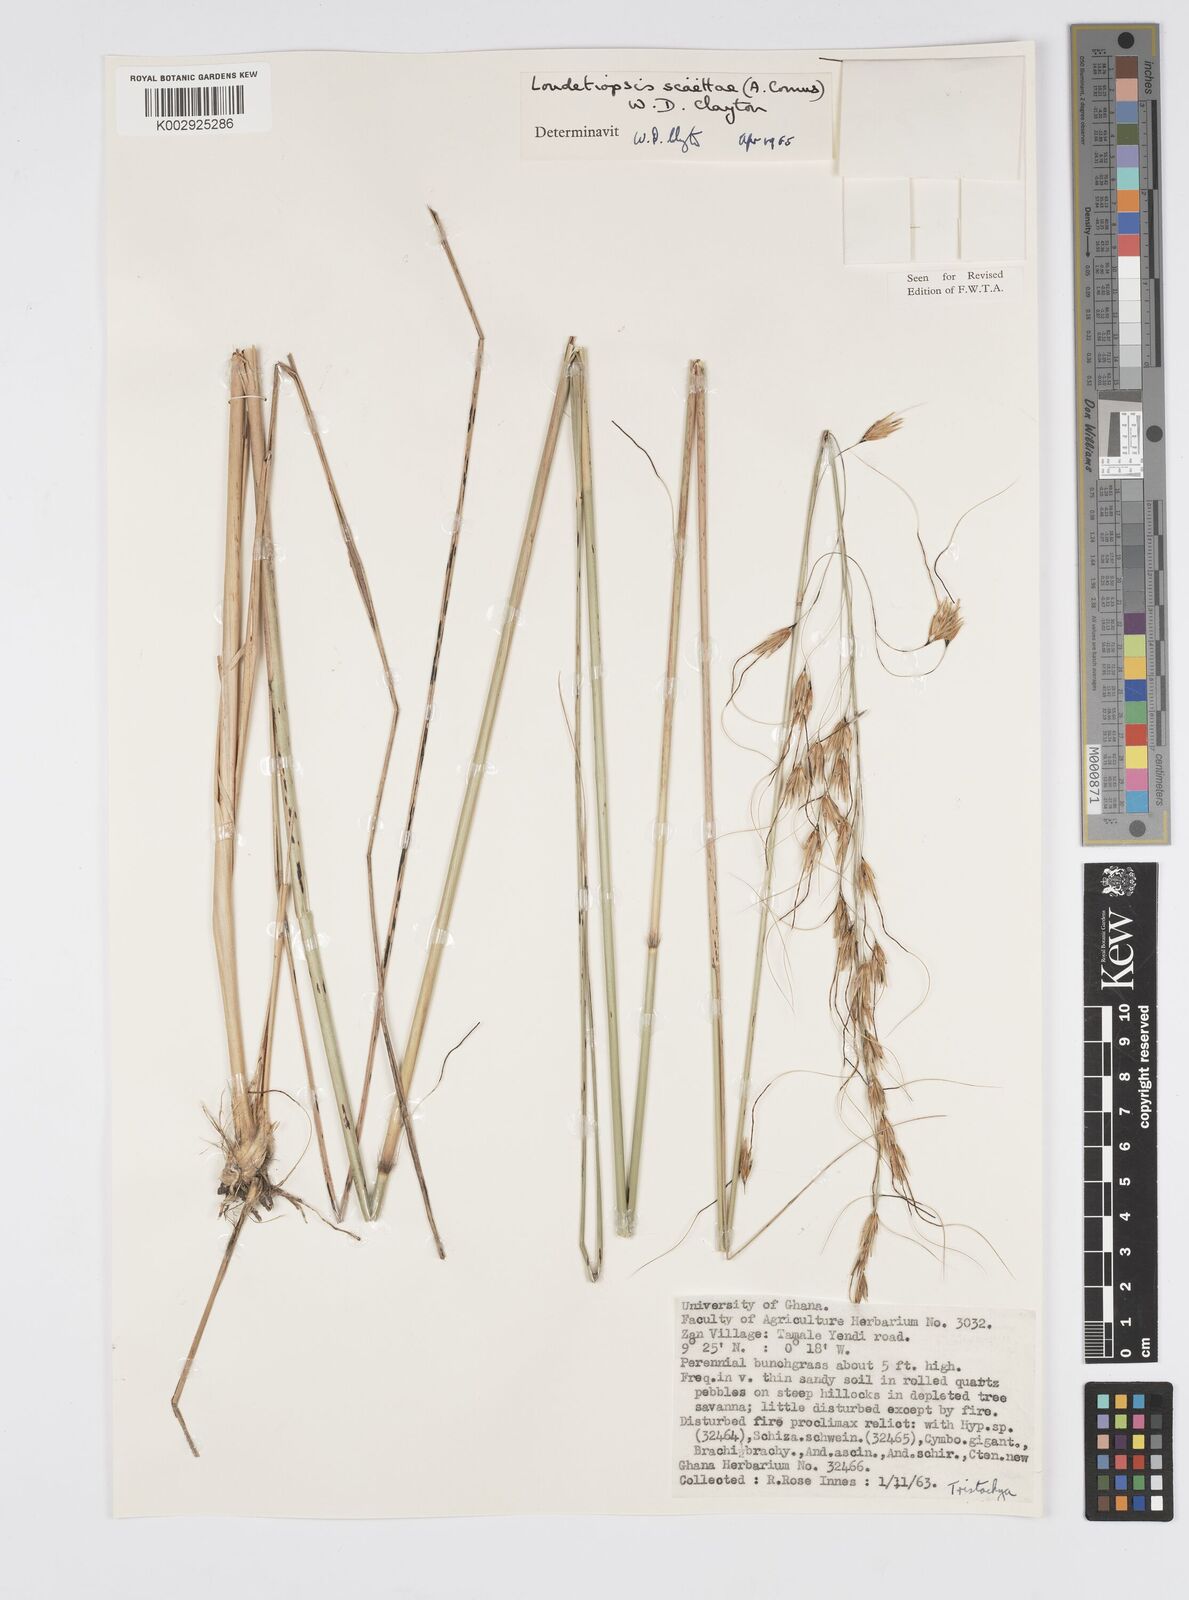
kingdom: Plantae
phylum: Tracheophyta
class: Liliopsida
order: Poales
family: Poaceae
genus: Loudetiopsis
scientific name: Loudetiopsis scaettae
